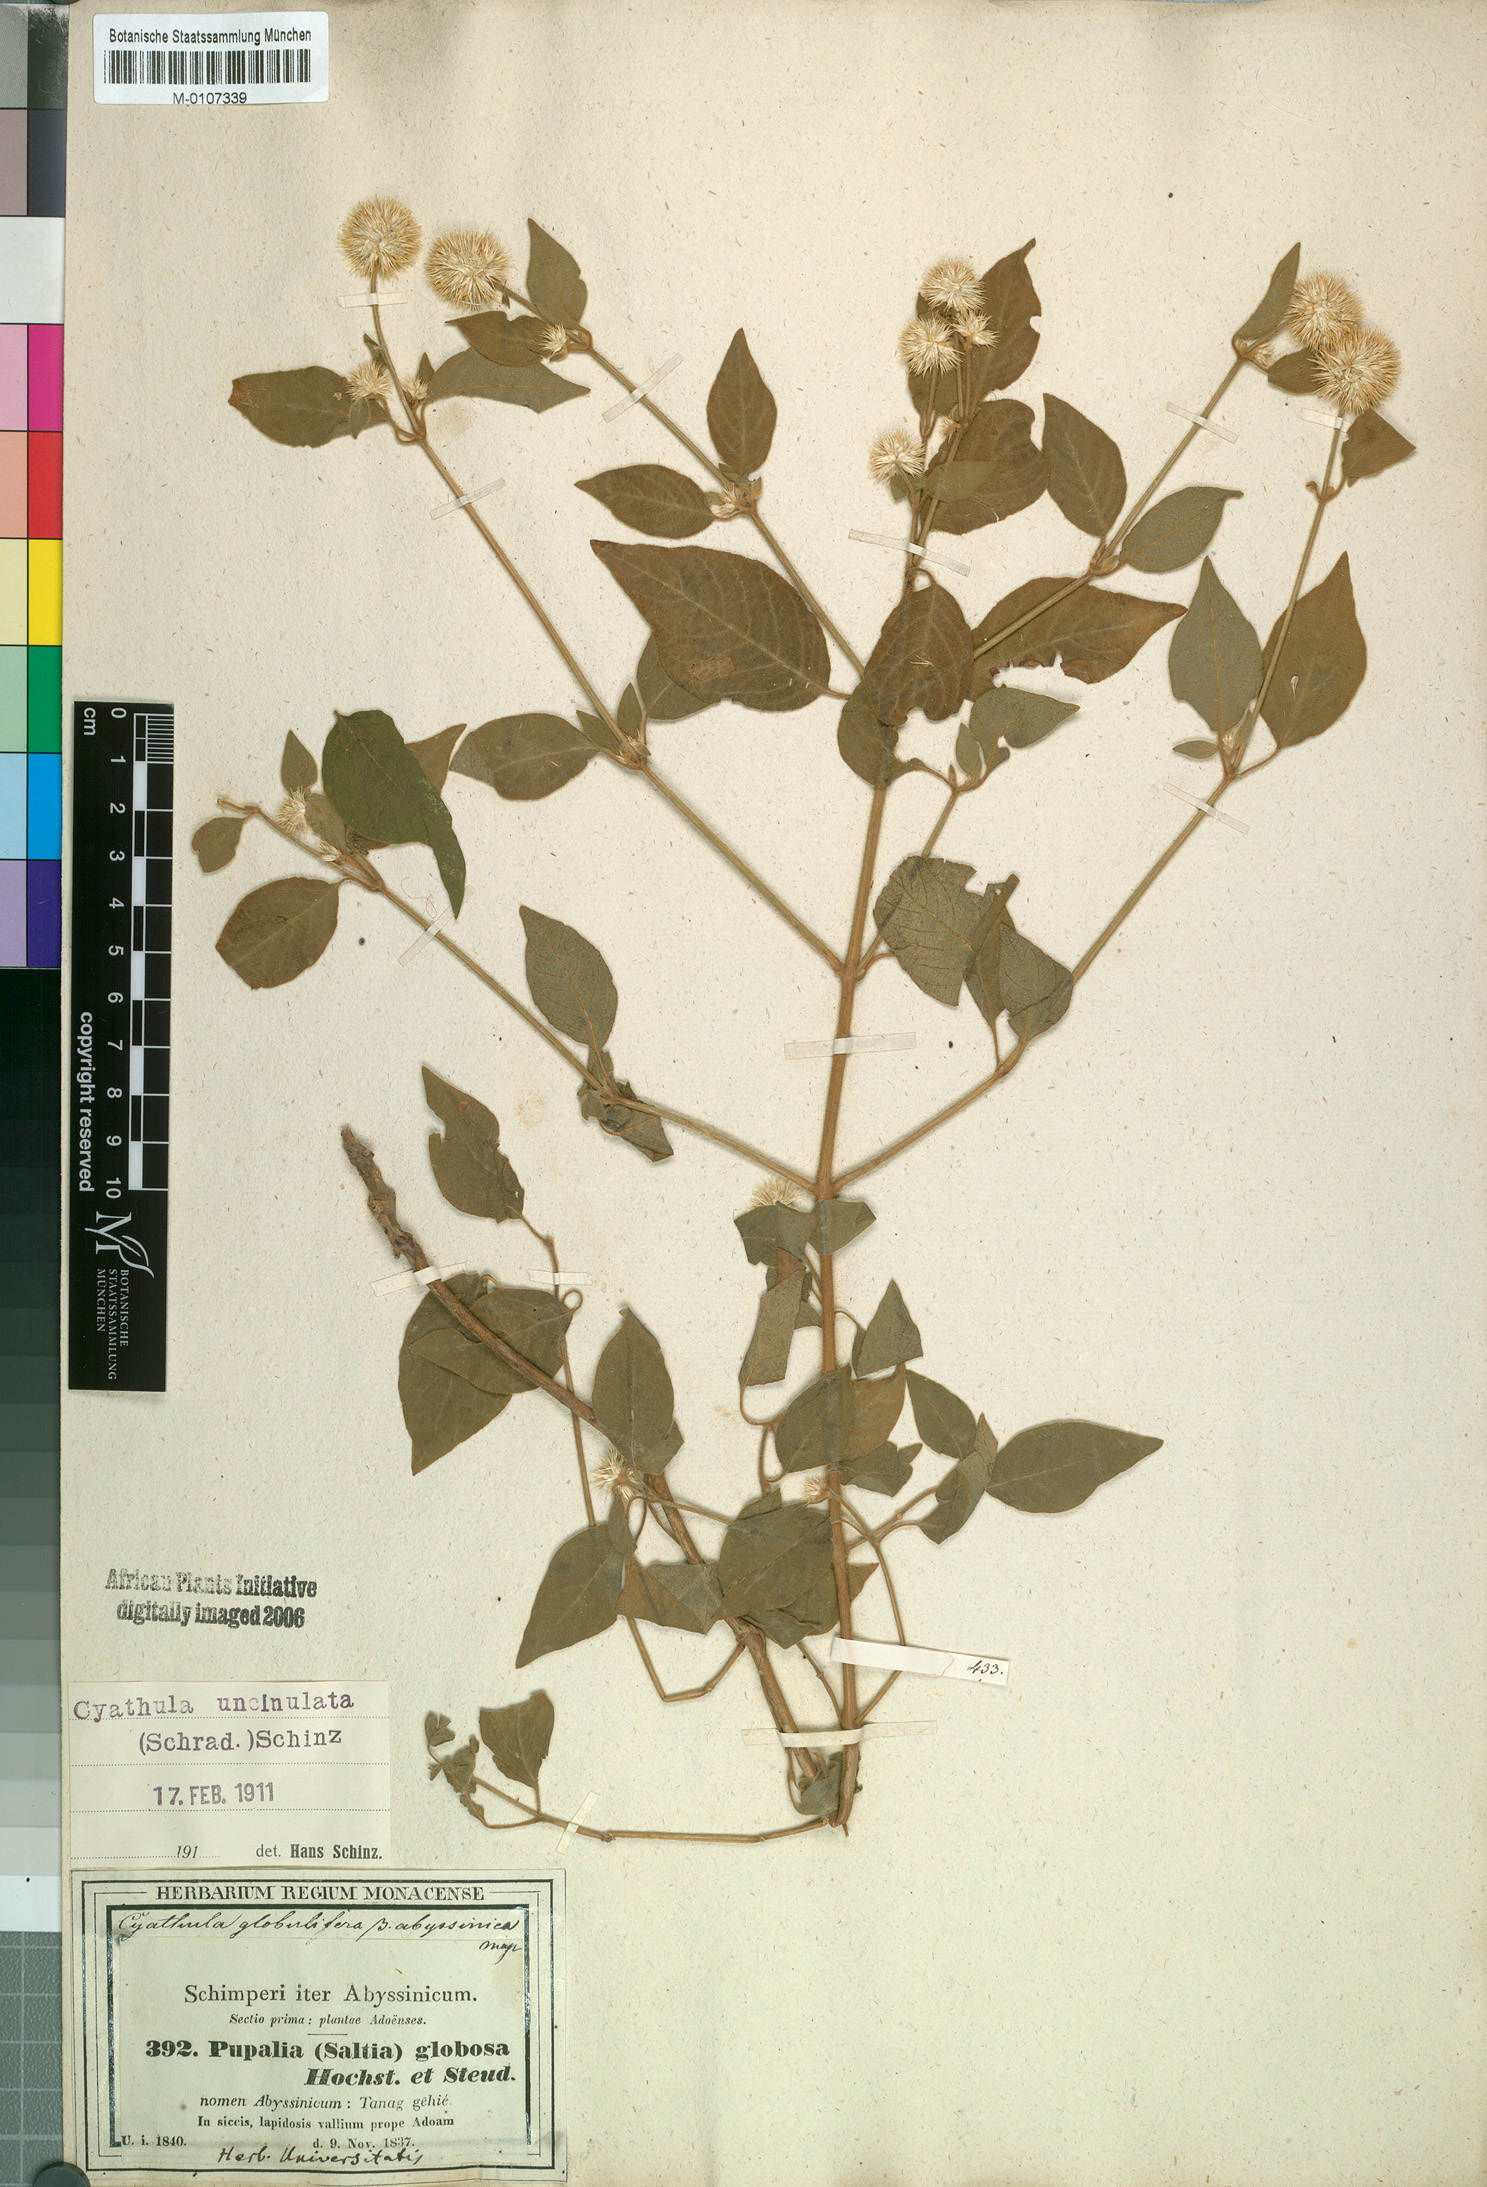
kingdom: Plantae
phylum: Tracheophyta
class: Magnoliopsida
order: Caryophyllales
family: Amaranthaceae
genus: Cyathula
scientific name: Cyathula uncinulata
